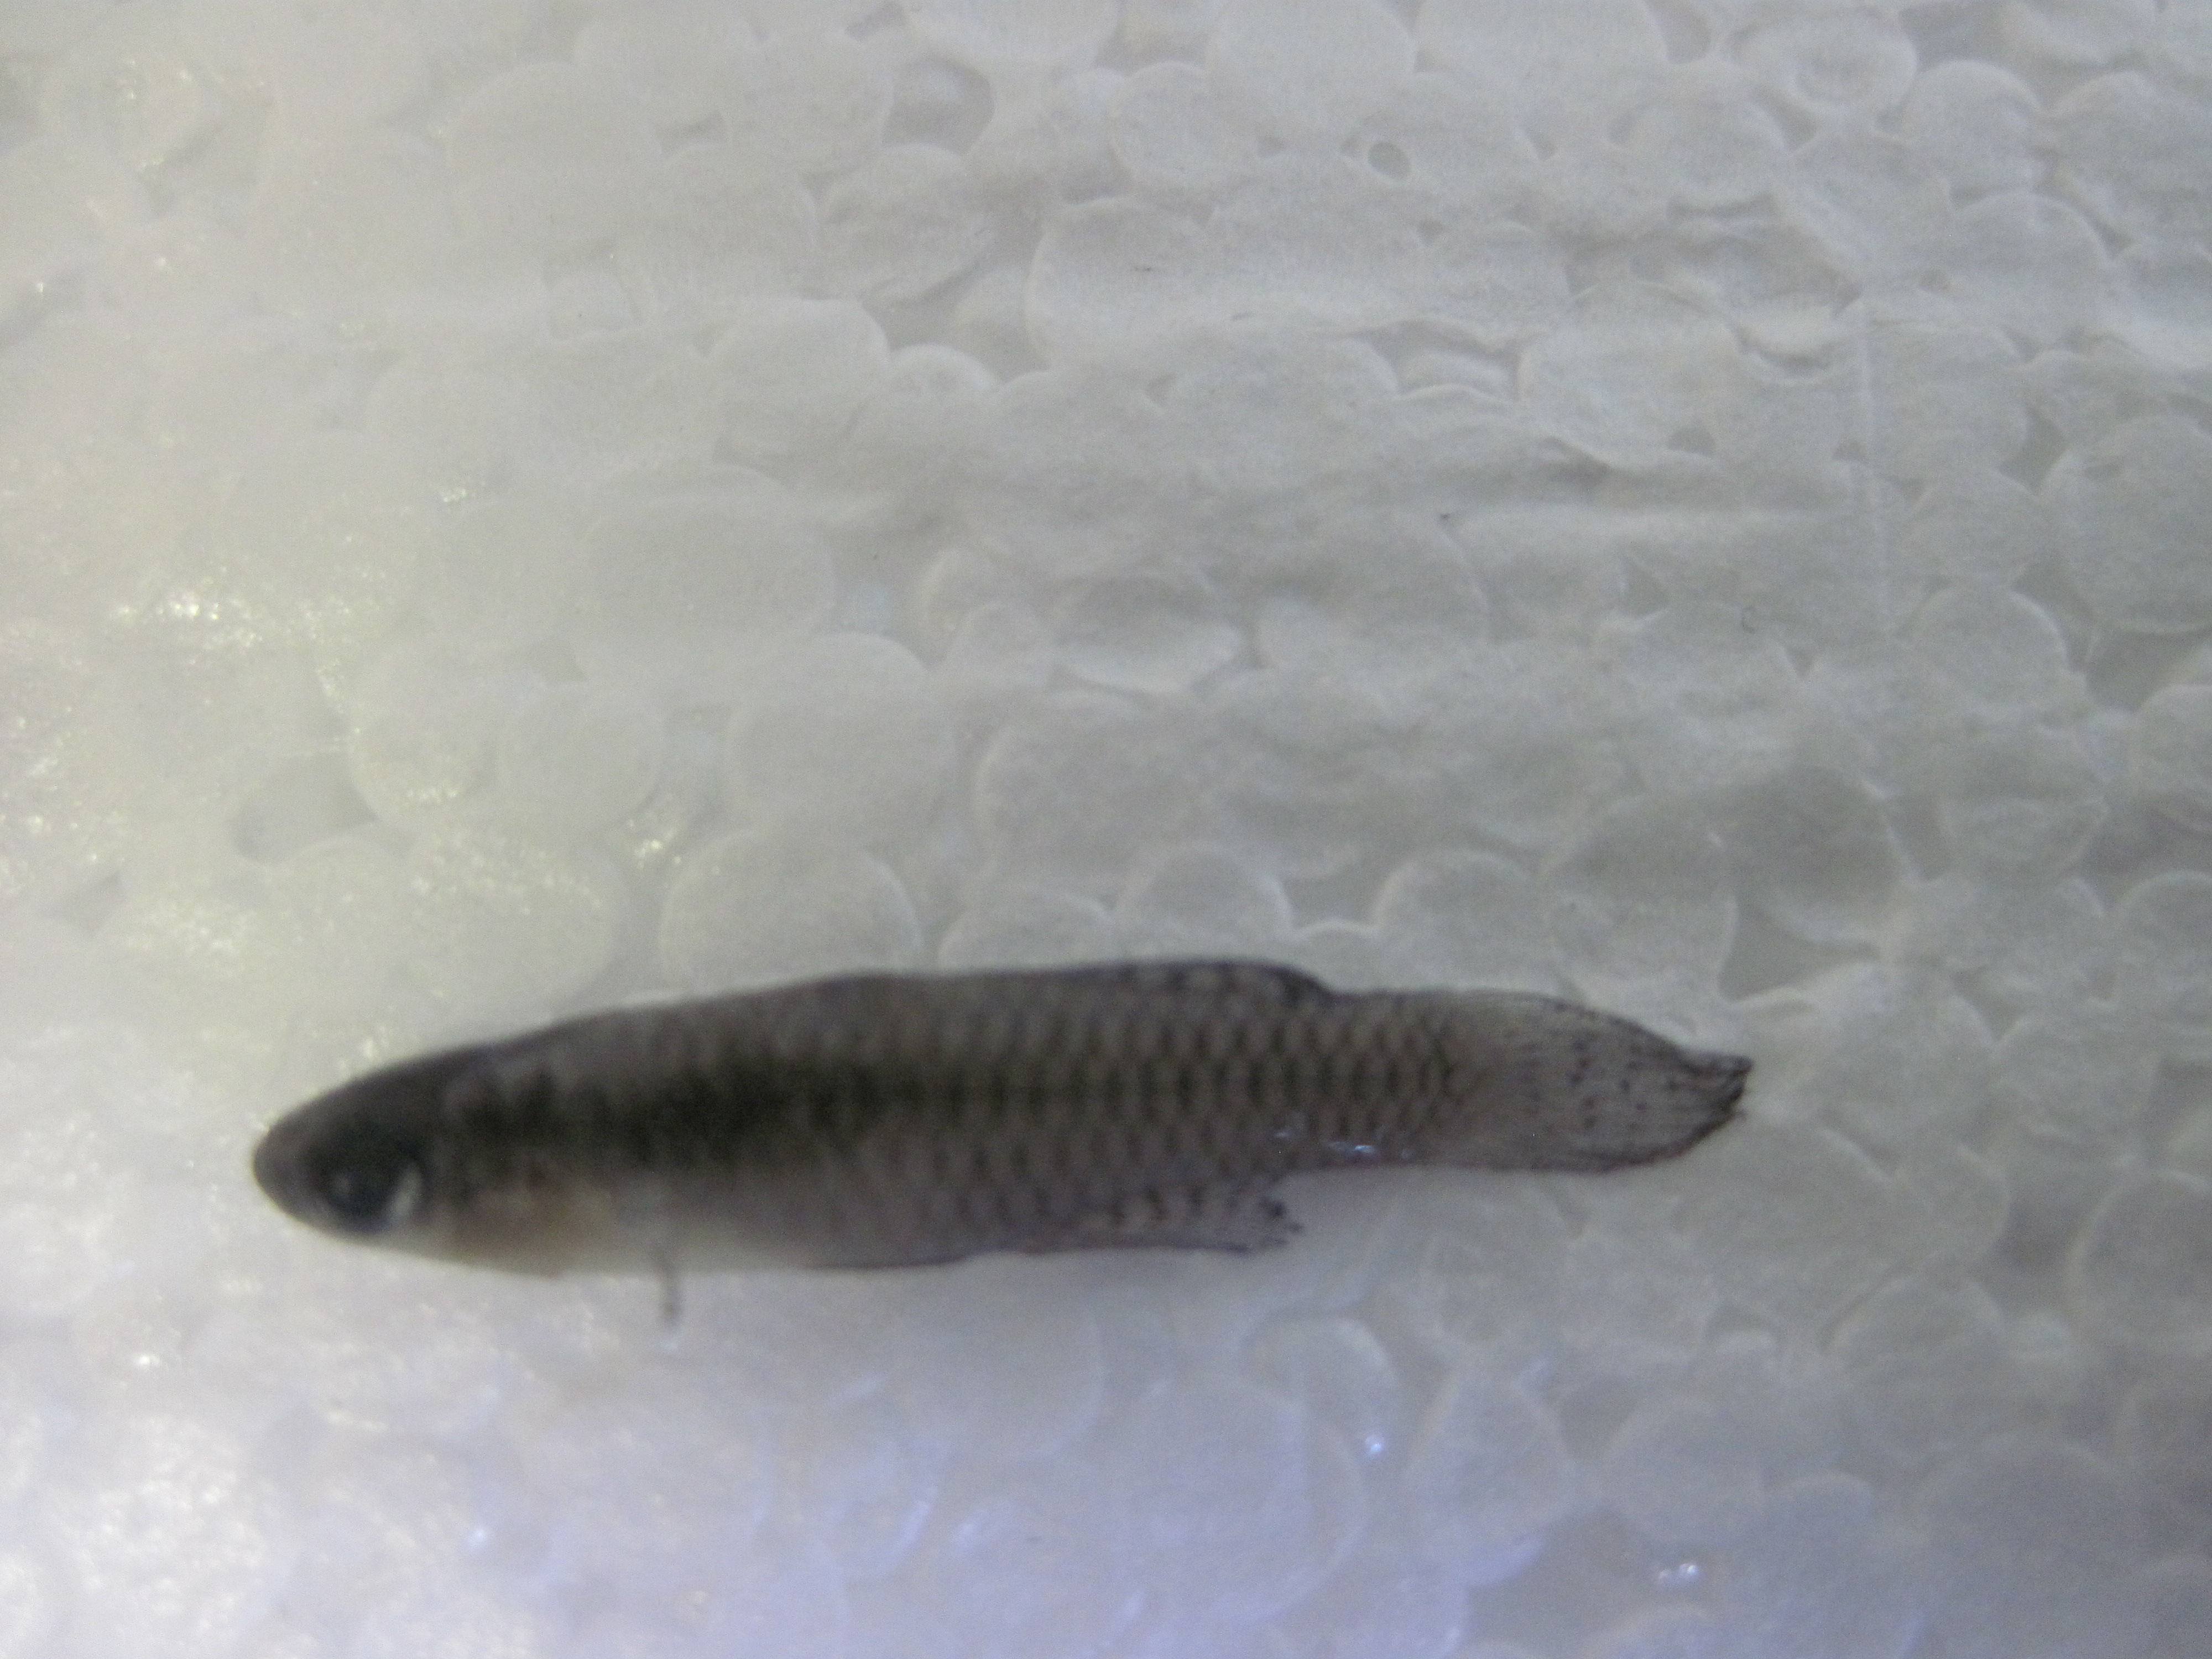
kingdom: Animalia
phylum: Chordata
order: Cyprinodontiformes
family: Poeciliidae
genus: Micropanchax
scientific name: Micropanchax hutereaui
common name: Meshscaled topminnow
